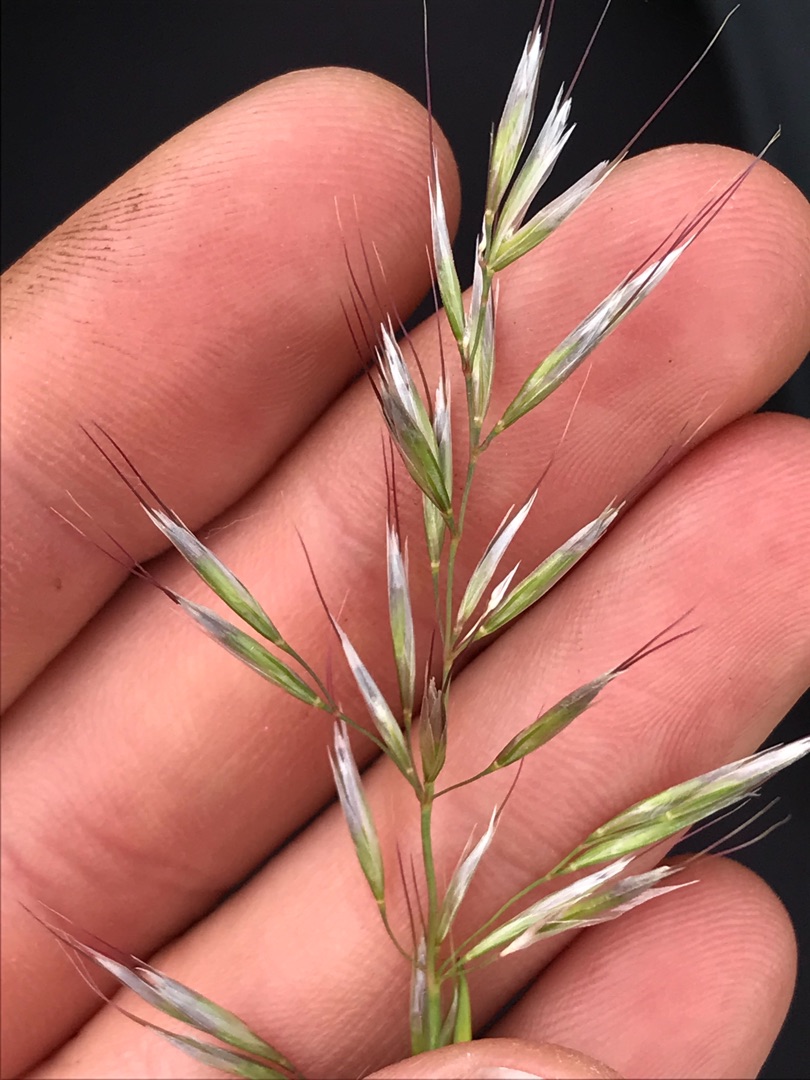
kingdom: Plantae
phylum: Tracheophyta
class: Liliopsida
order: Poales
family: Poaceae
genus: Avenula
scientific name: Avenula pubescens
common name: Dunet havre
